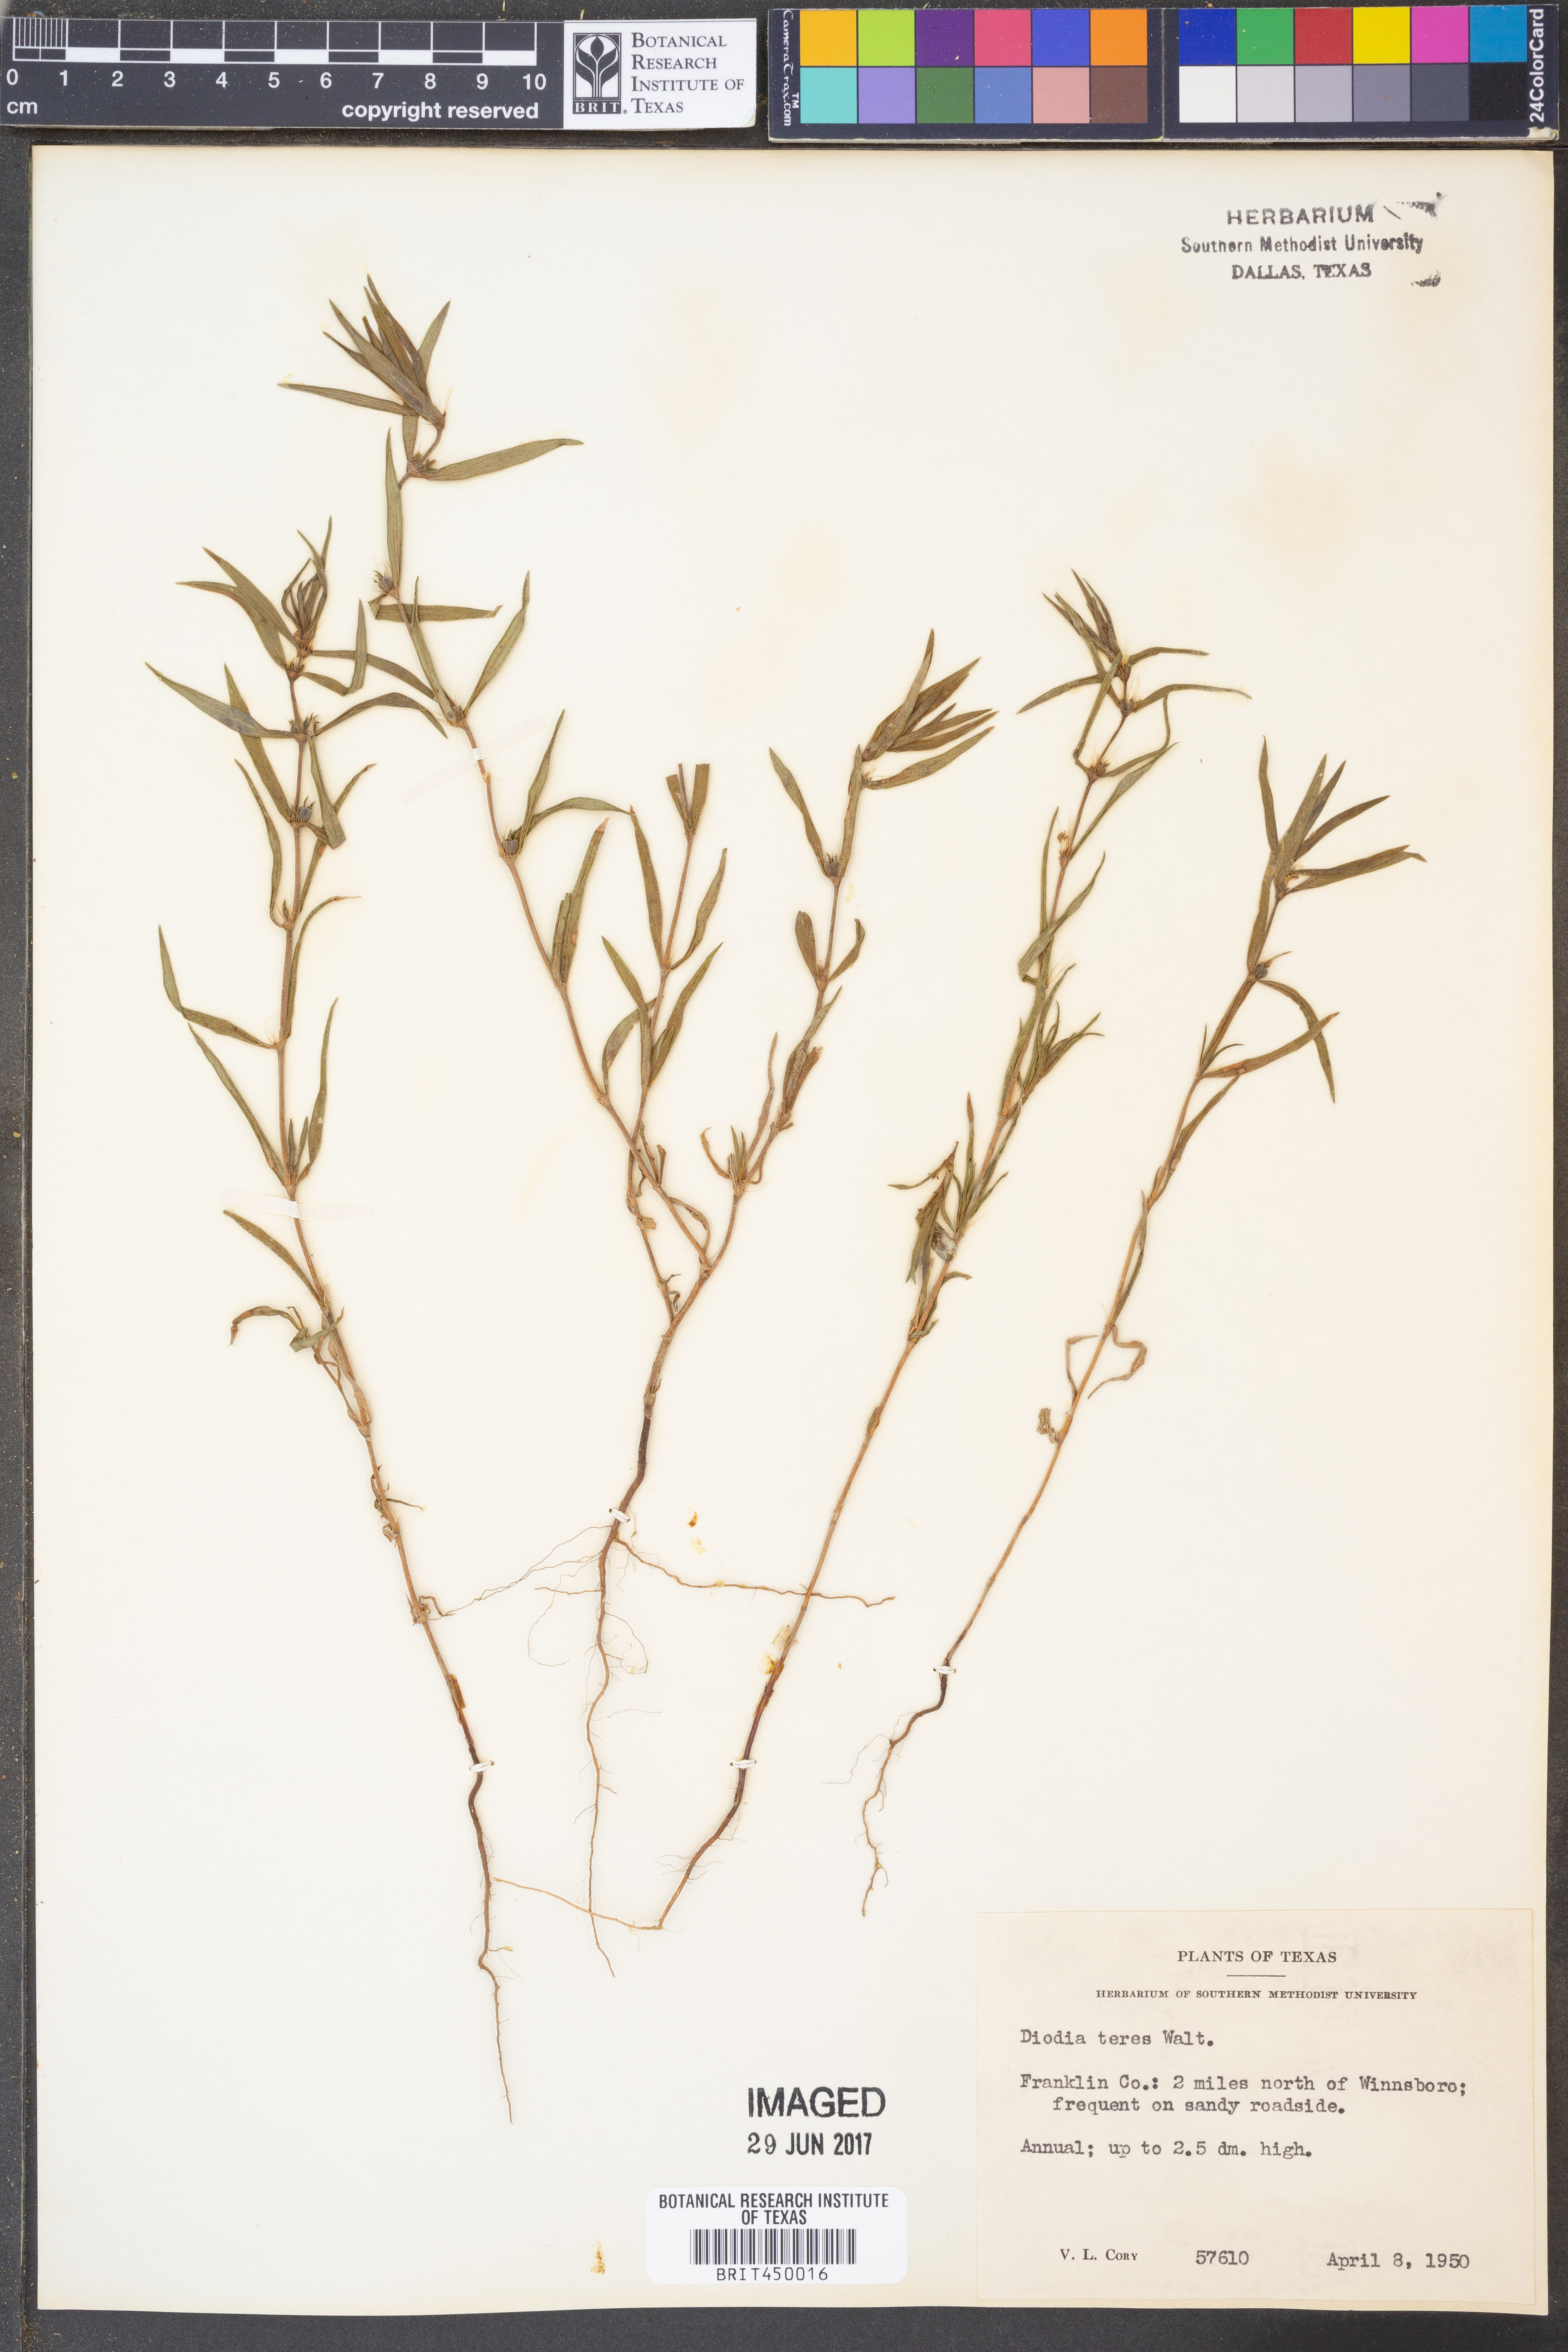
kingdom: Plantae
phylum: Tracheophyta
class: Magnoliopsida
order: Gentianales
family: Rubiaceae
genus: Hexasepalum
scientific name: Hexasepalum teres
